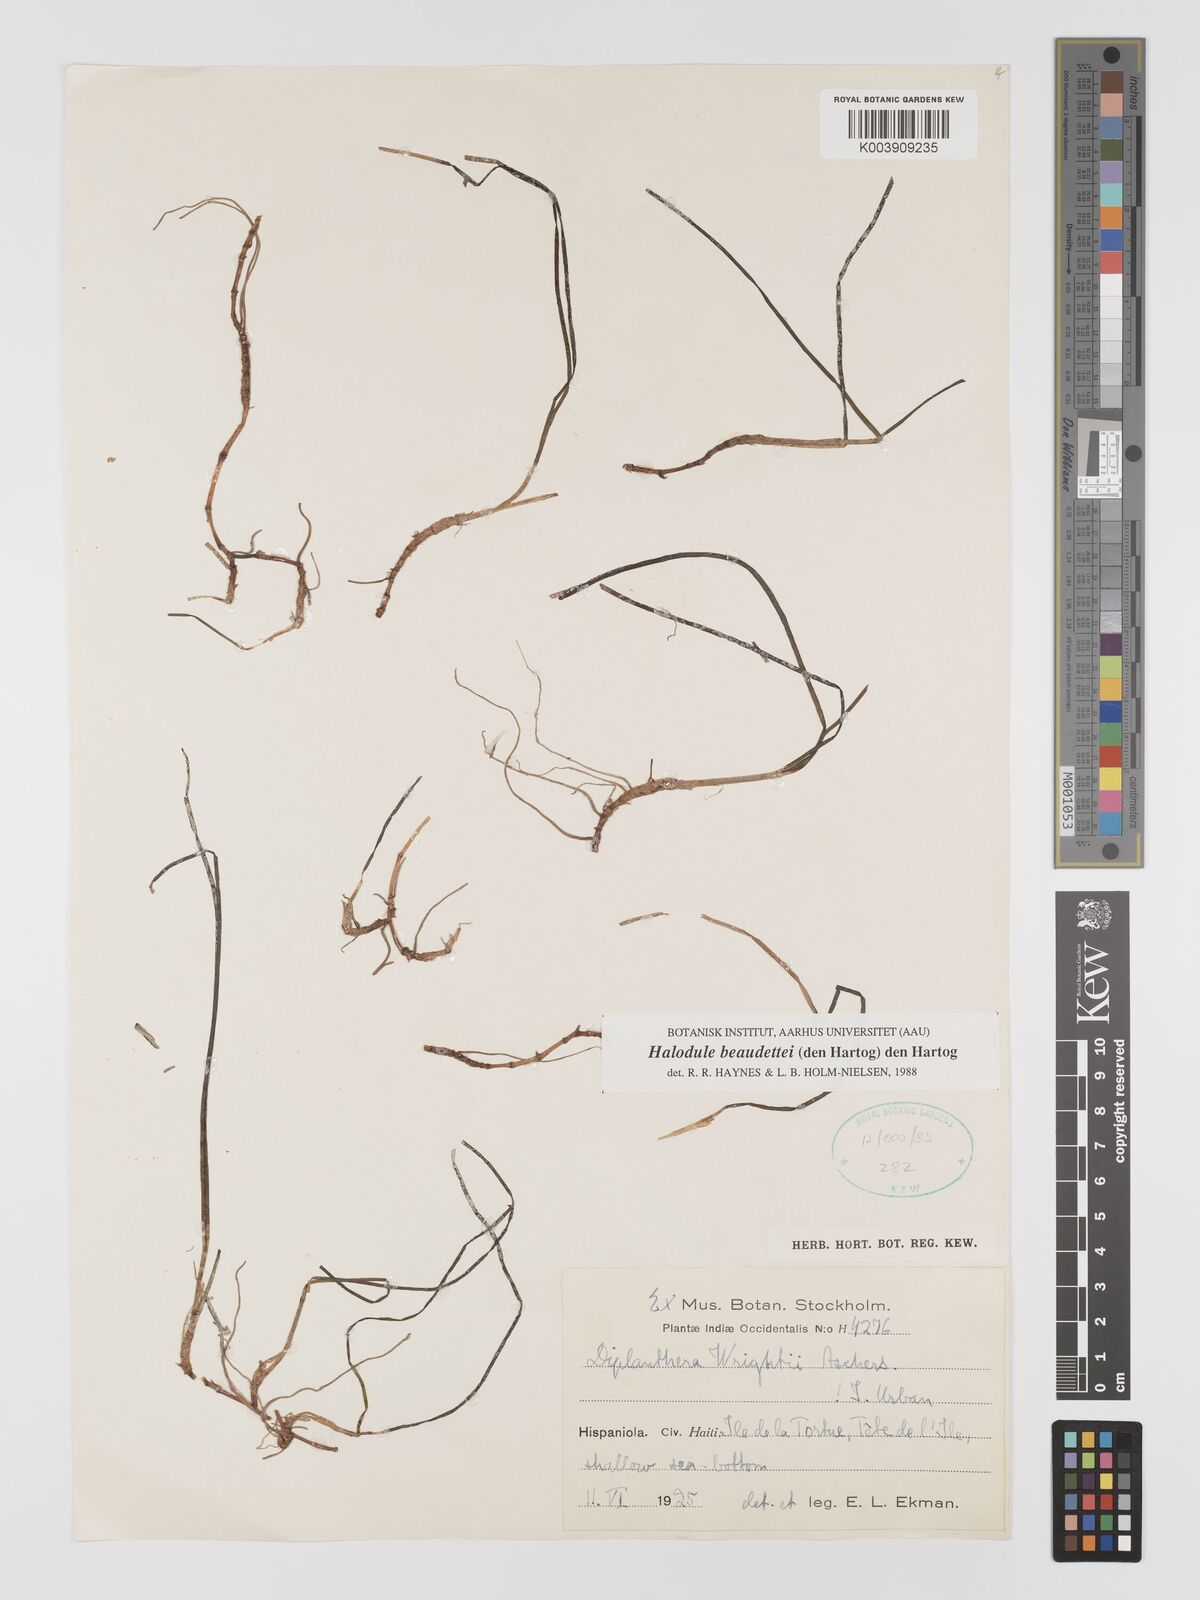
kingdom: Plantae
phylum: Tracheophyta
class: Liliopsida
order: Alismatales
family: Cymodoceaceae
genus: Halodule
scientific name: Halodule wrightii
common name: Shoalgrass
